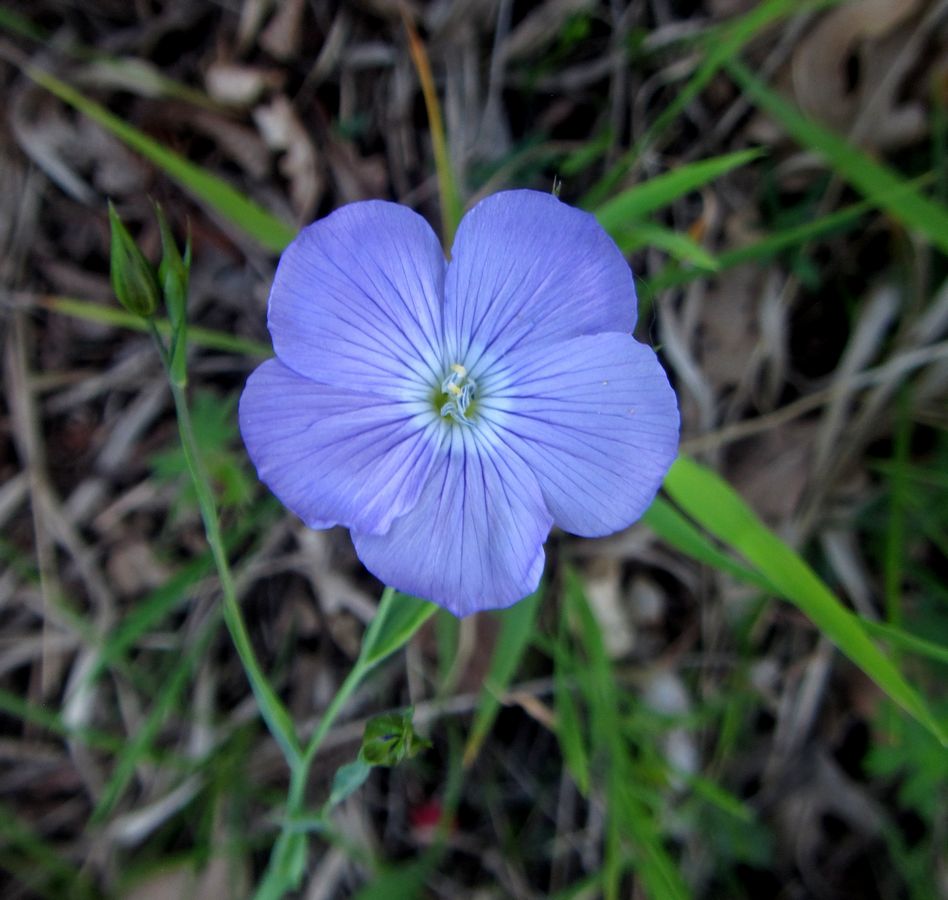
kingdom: Plantae
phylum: Tracheophyta
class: Magnoliopsida
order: Malpighiales
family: Linaceae
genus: Linum
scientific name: Linum nervosum
